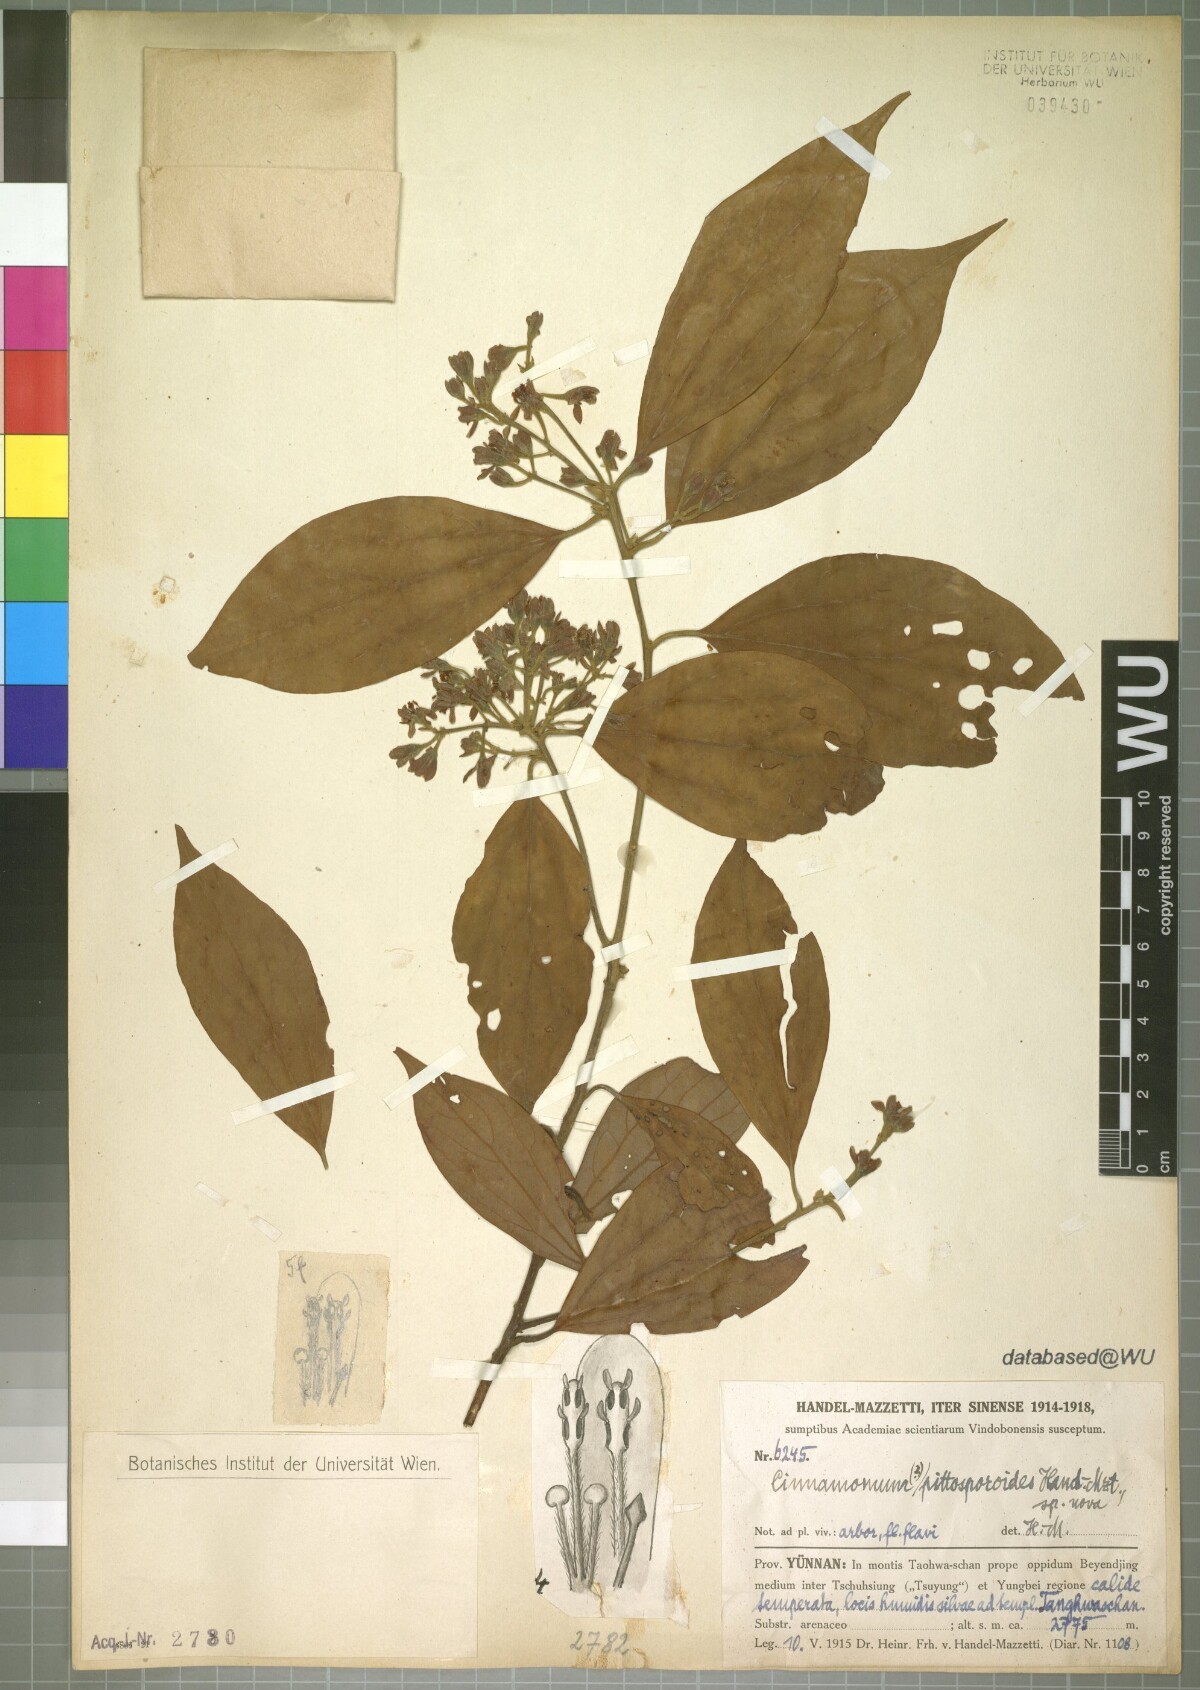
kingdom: Plantae
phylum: Tracheophyta
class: Magnoliopsida
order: Laurales
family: Lauraceae
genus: Cinnamomum
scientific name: Cinnamomum pittosporoides
